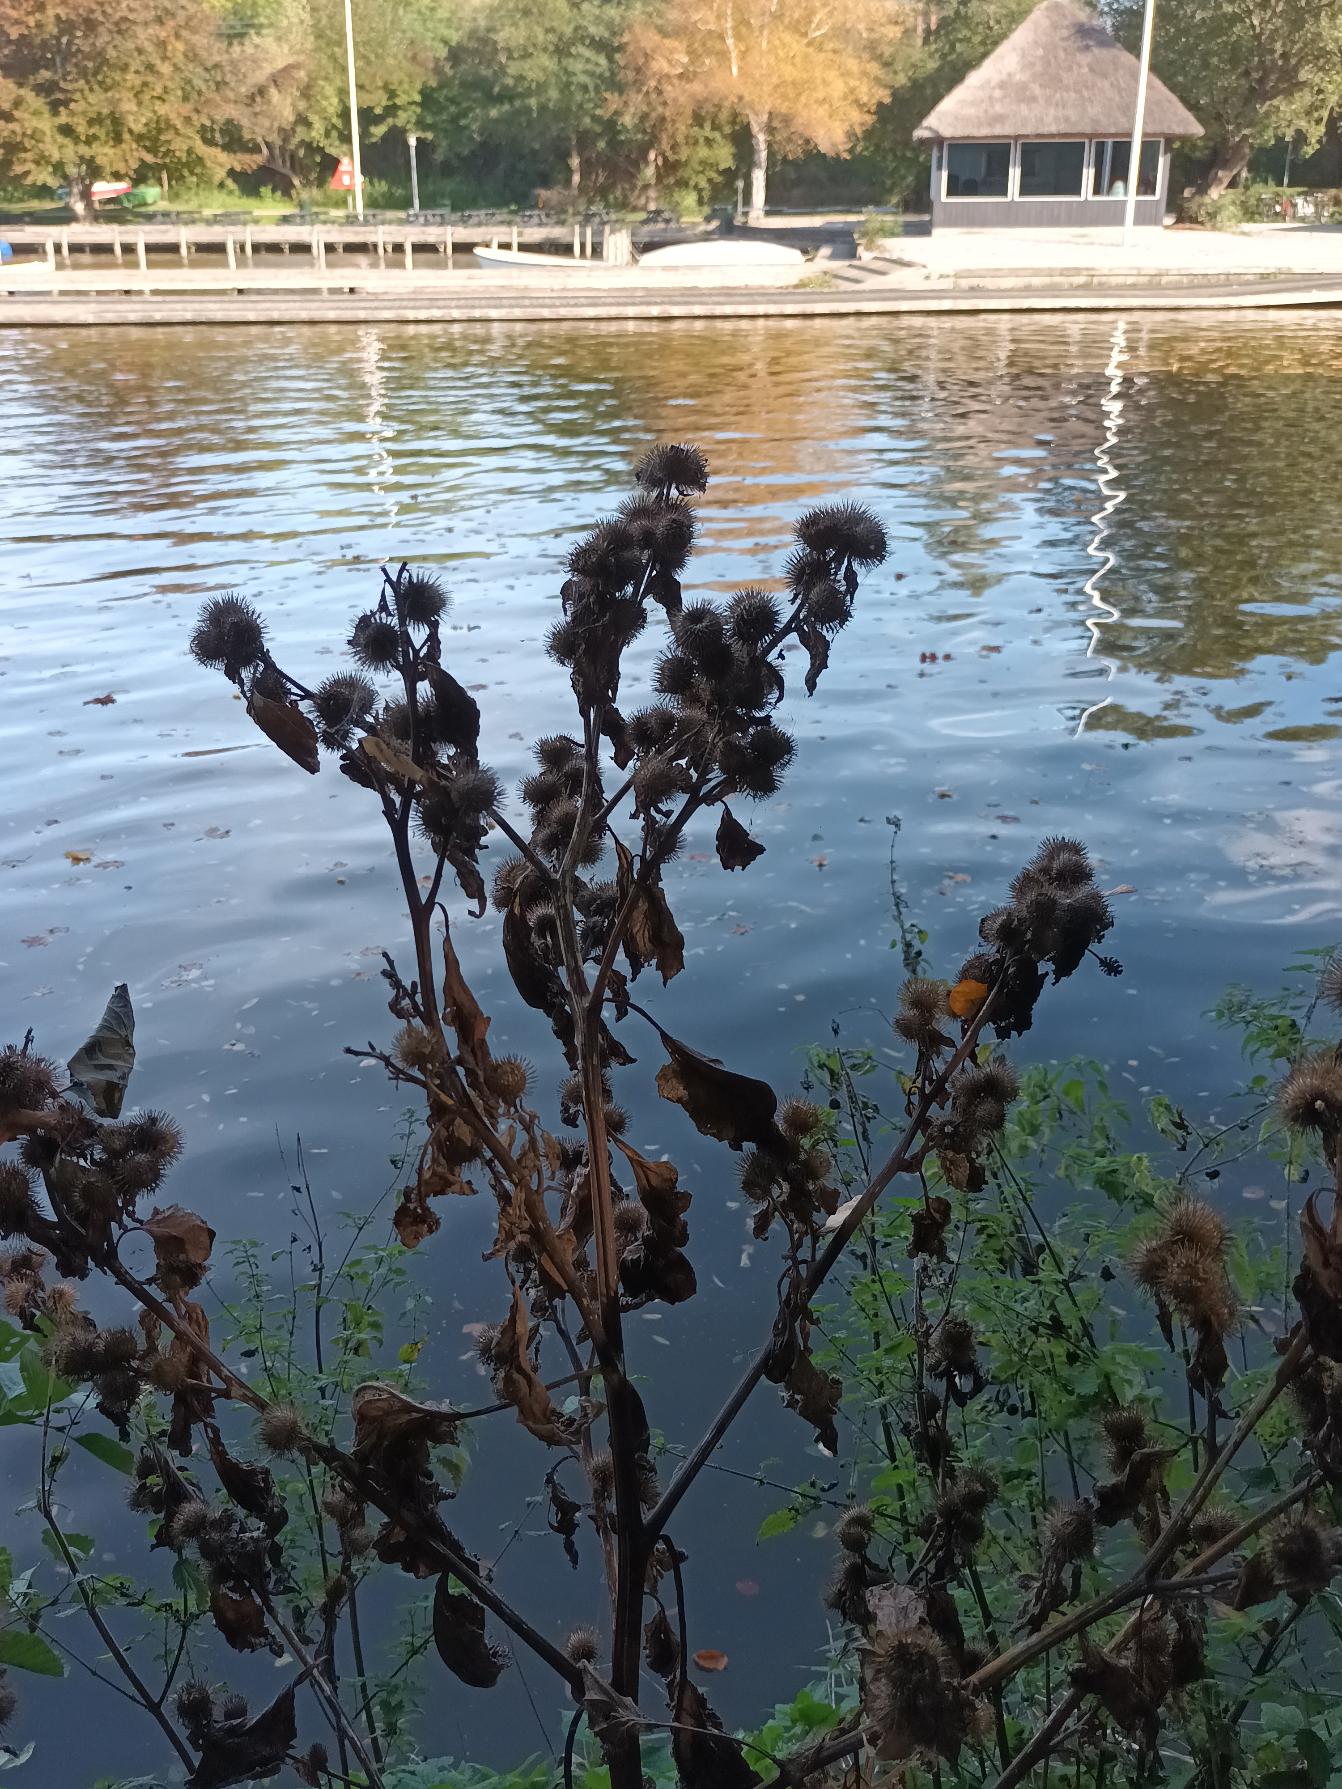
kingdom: Plantae
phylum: Tracheophyta
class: Magnoliopsida
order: Asterales
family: Asteraceae
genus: Arctium
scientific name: Arctium minus
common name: Liden burre
